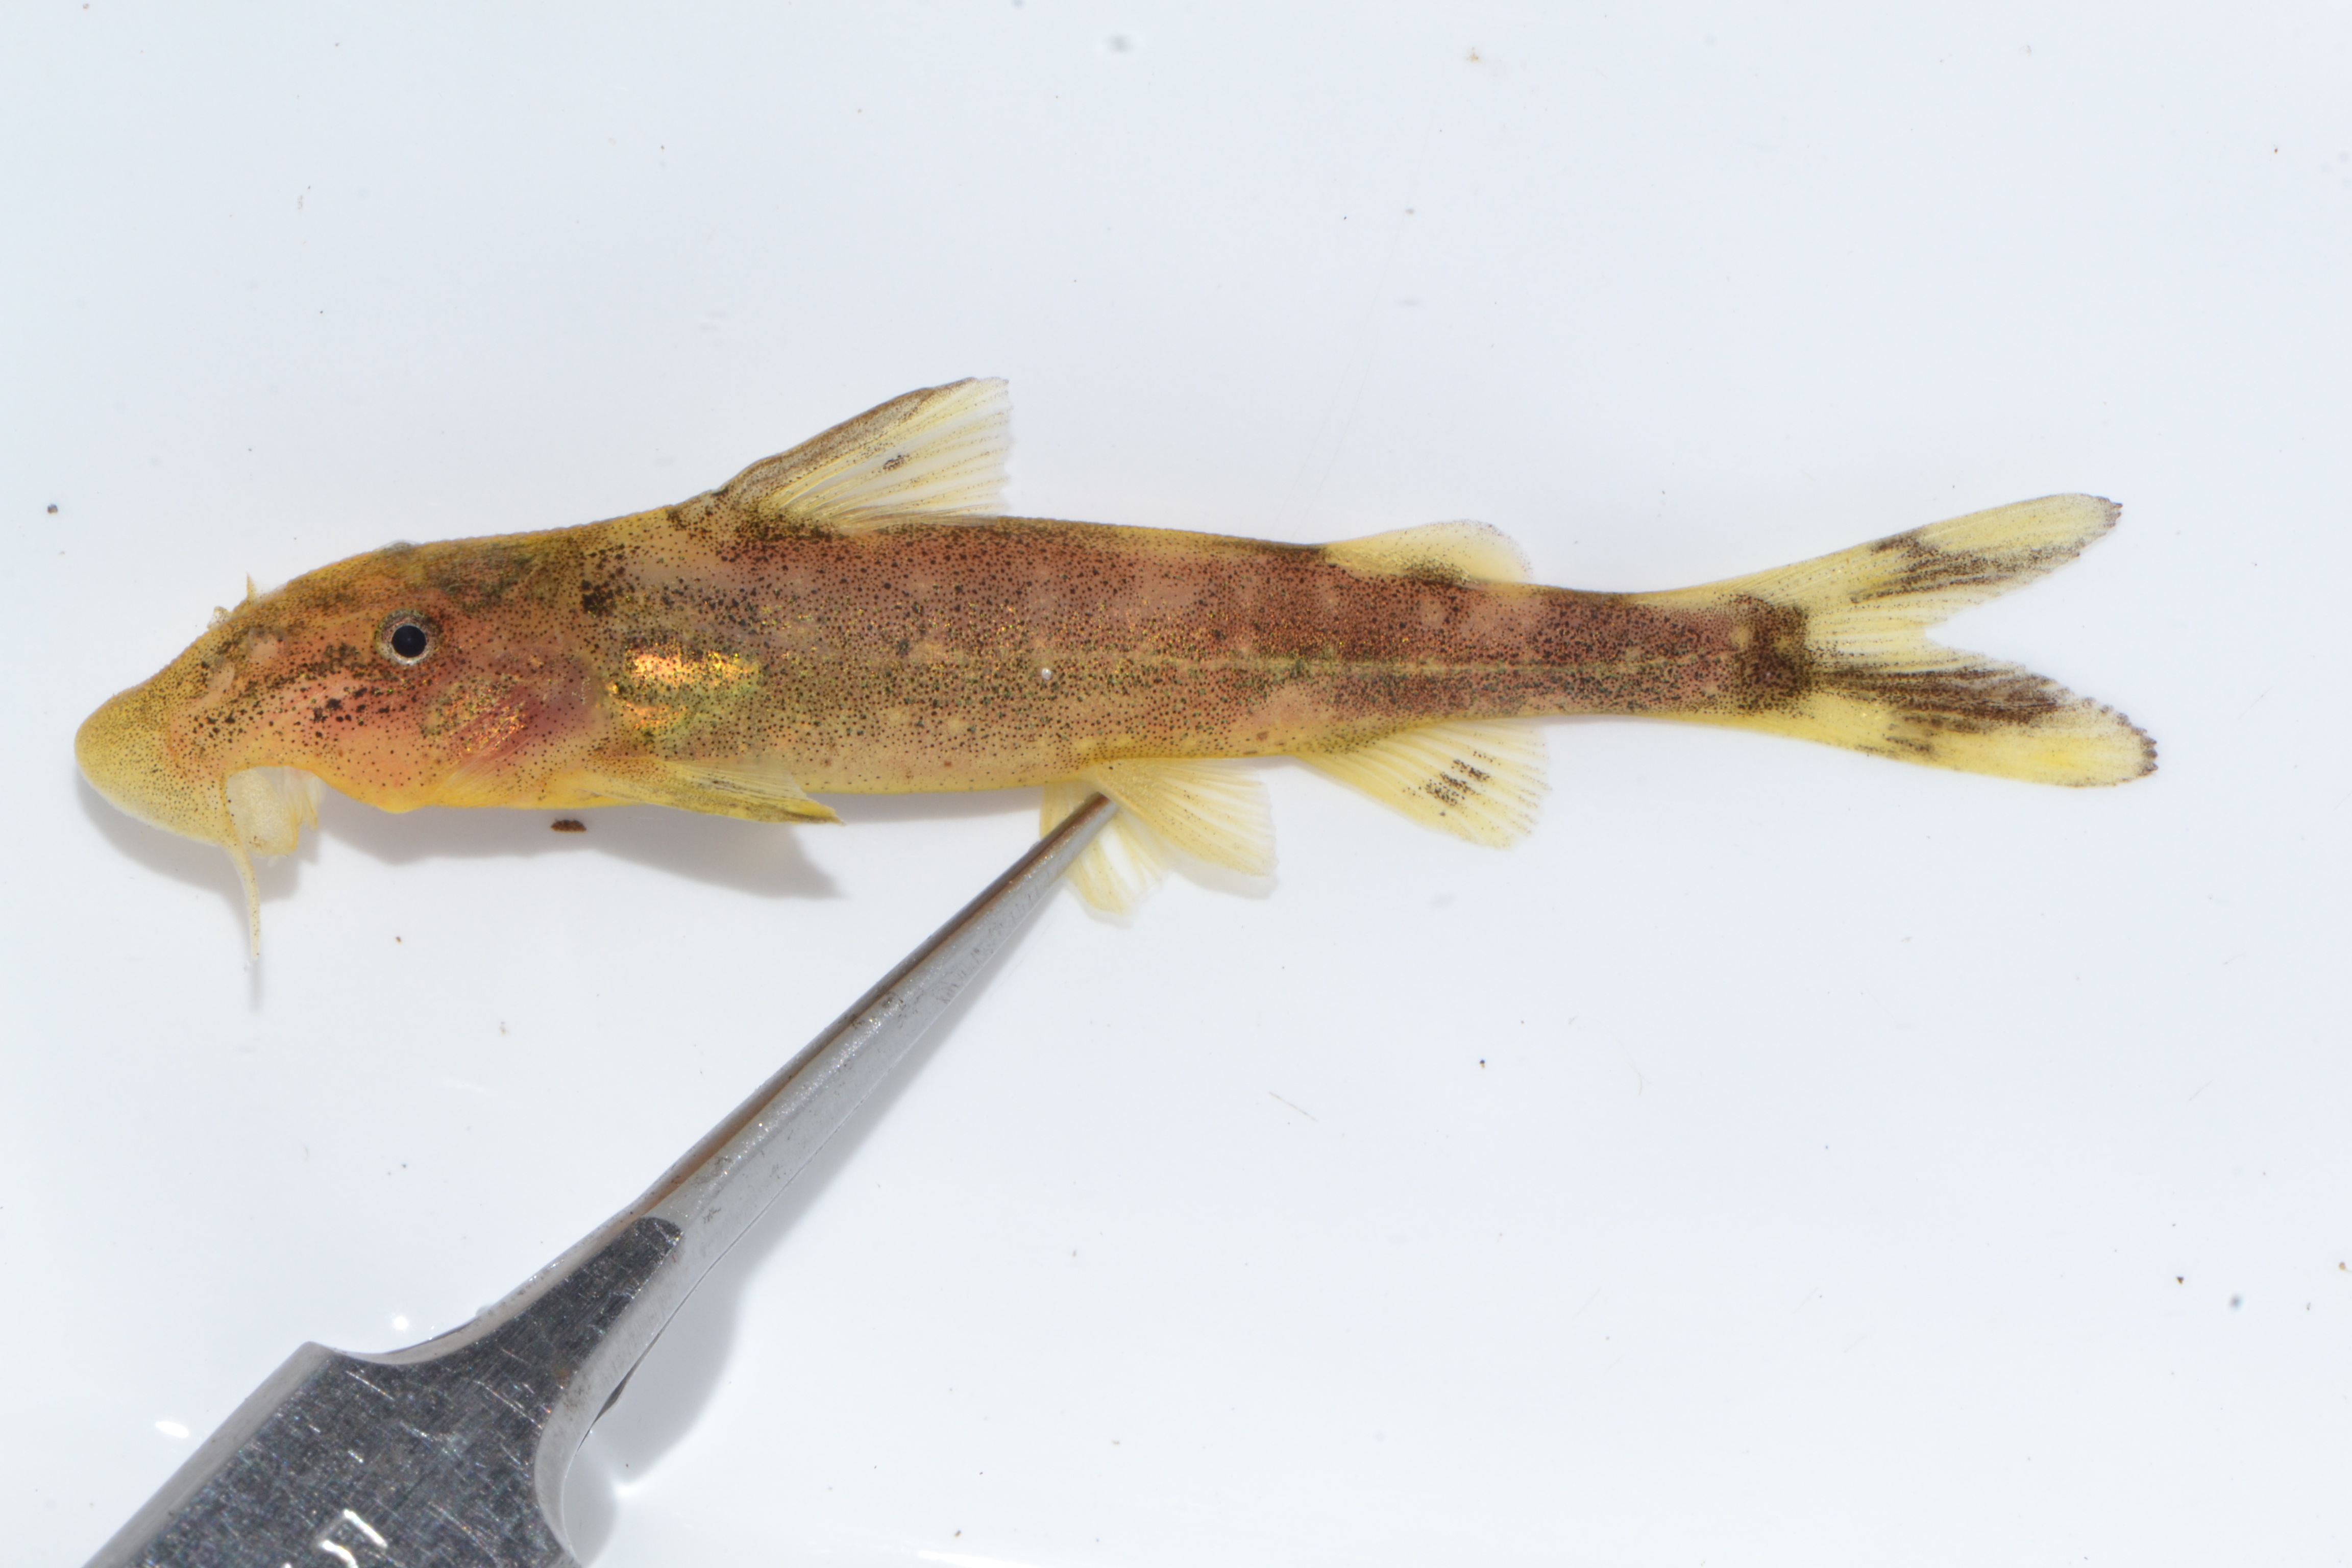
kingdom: Animalia
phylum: Chordata
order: Siluriformes
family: Mochokidae
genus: Chiloglanis
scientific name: Chiloglanis fasciatus
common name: Okavango suckermouth
